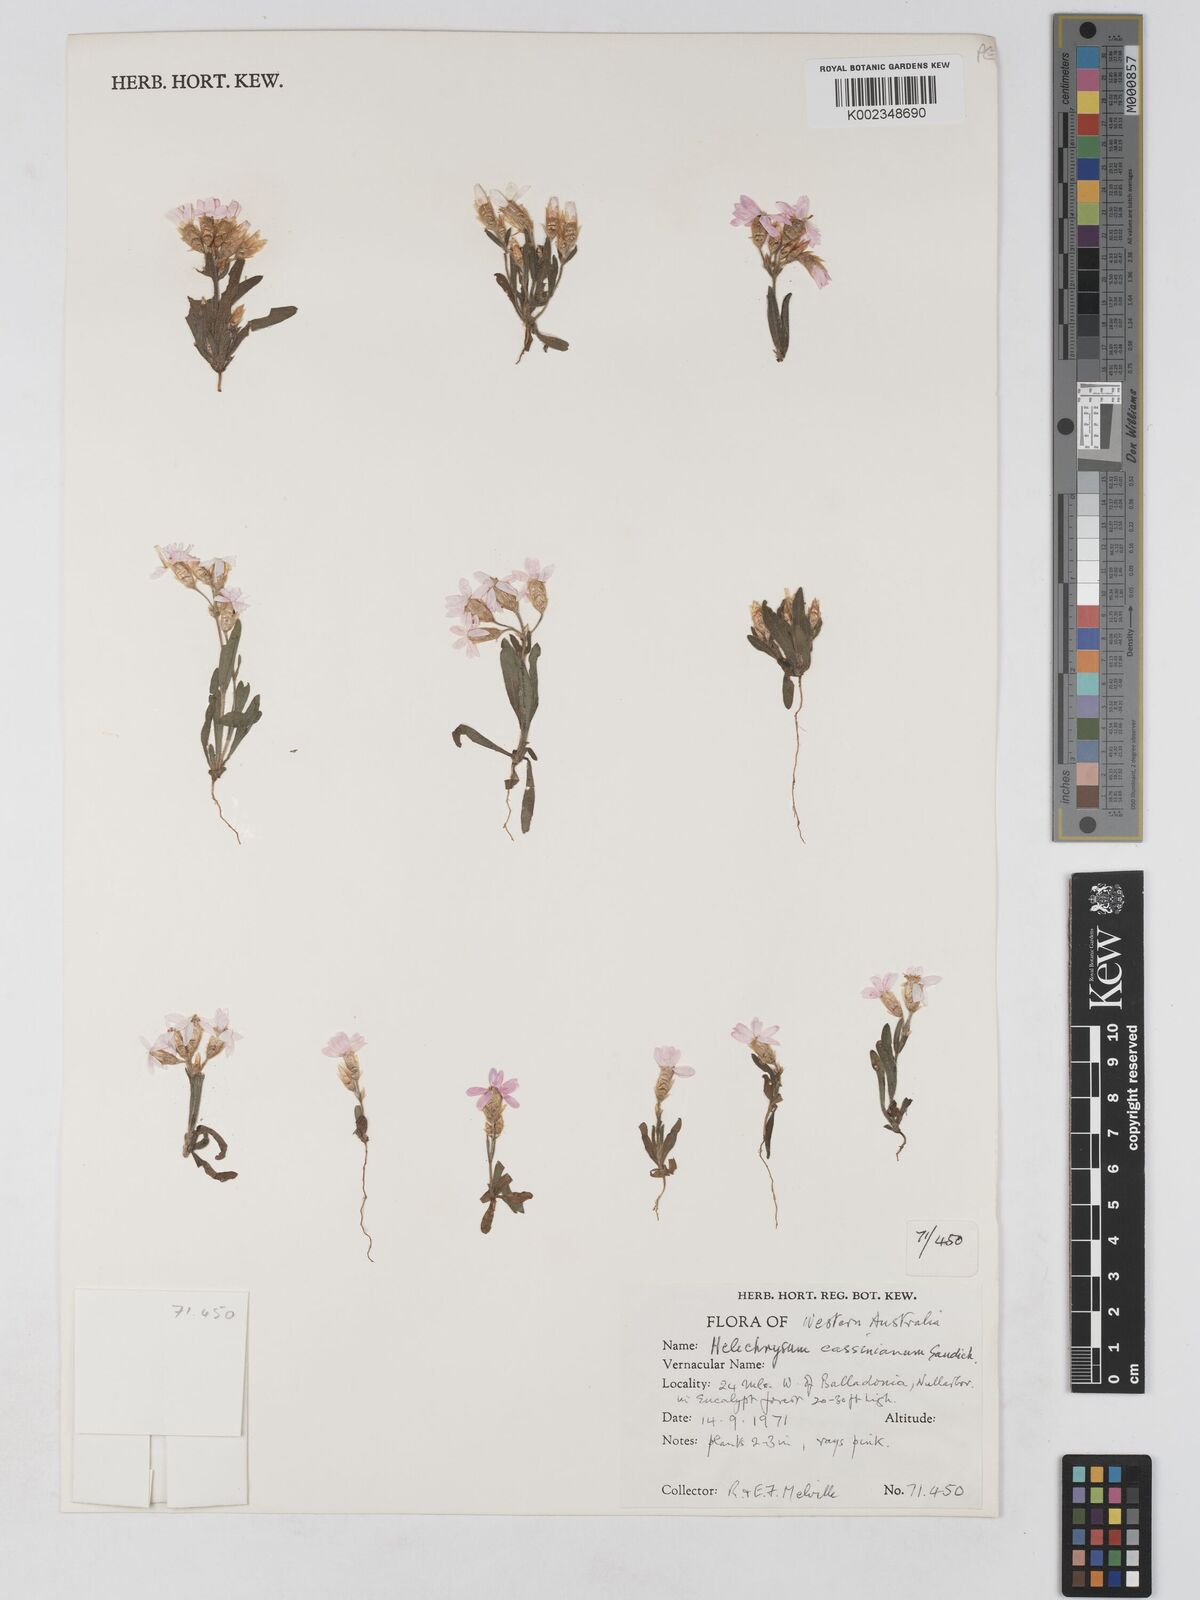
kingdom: Plantae
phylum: Tracheophyta
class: Magnoliopsida
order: Asterales
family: Asteraceae
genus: Schoenia
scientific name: Schoenia cassiniana
